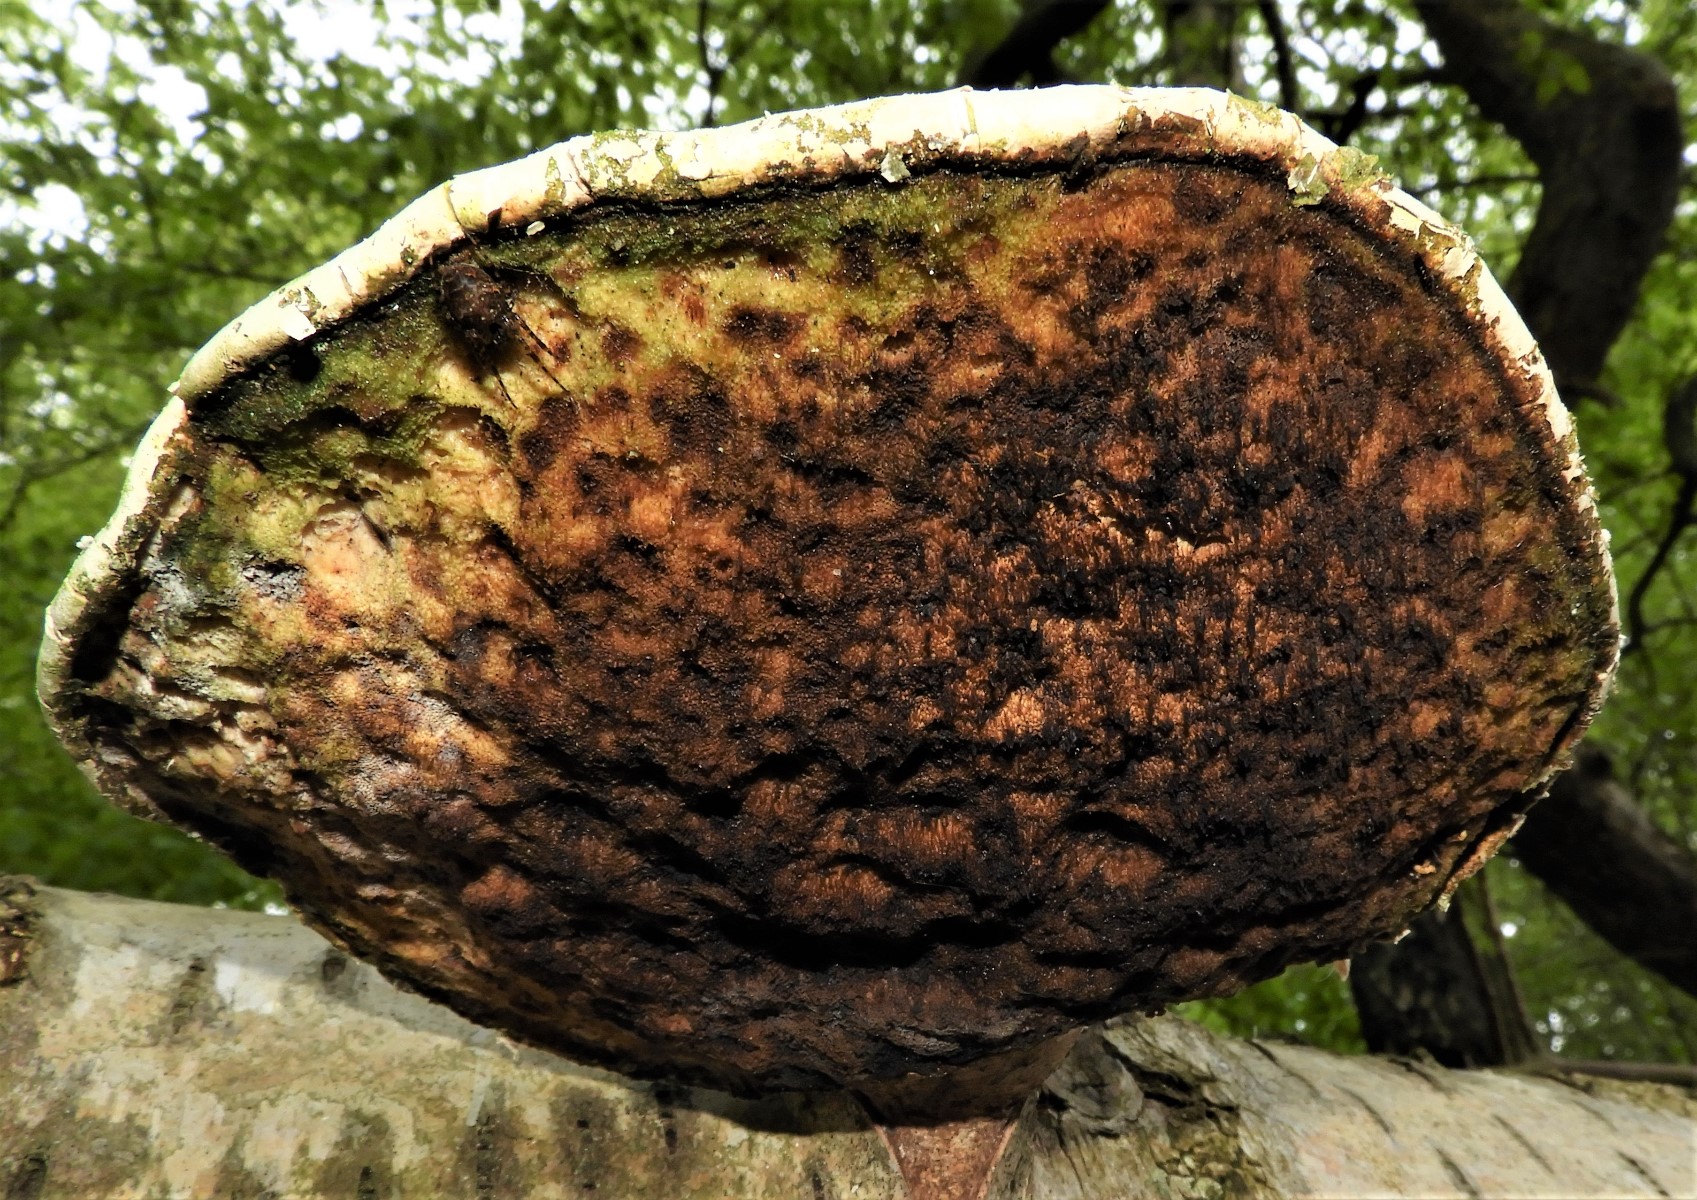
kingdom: Fungi
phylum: Basidiomycota
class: Agaricomycetes
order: Polyporales
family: Fomitopsidaceae
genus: Fomitopsis
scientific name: Fomitopsis betulina
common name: birkeporesvamp
